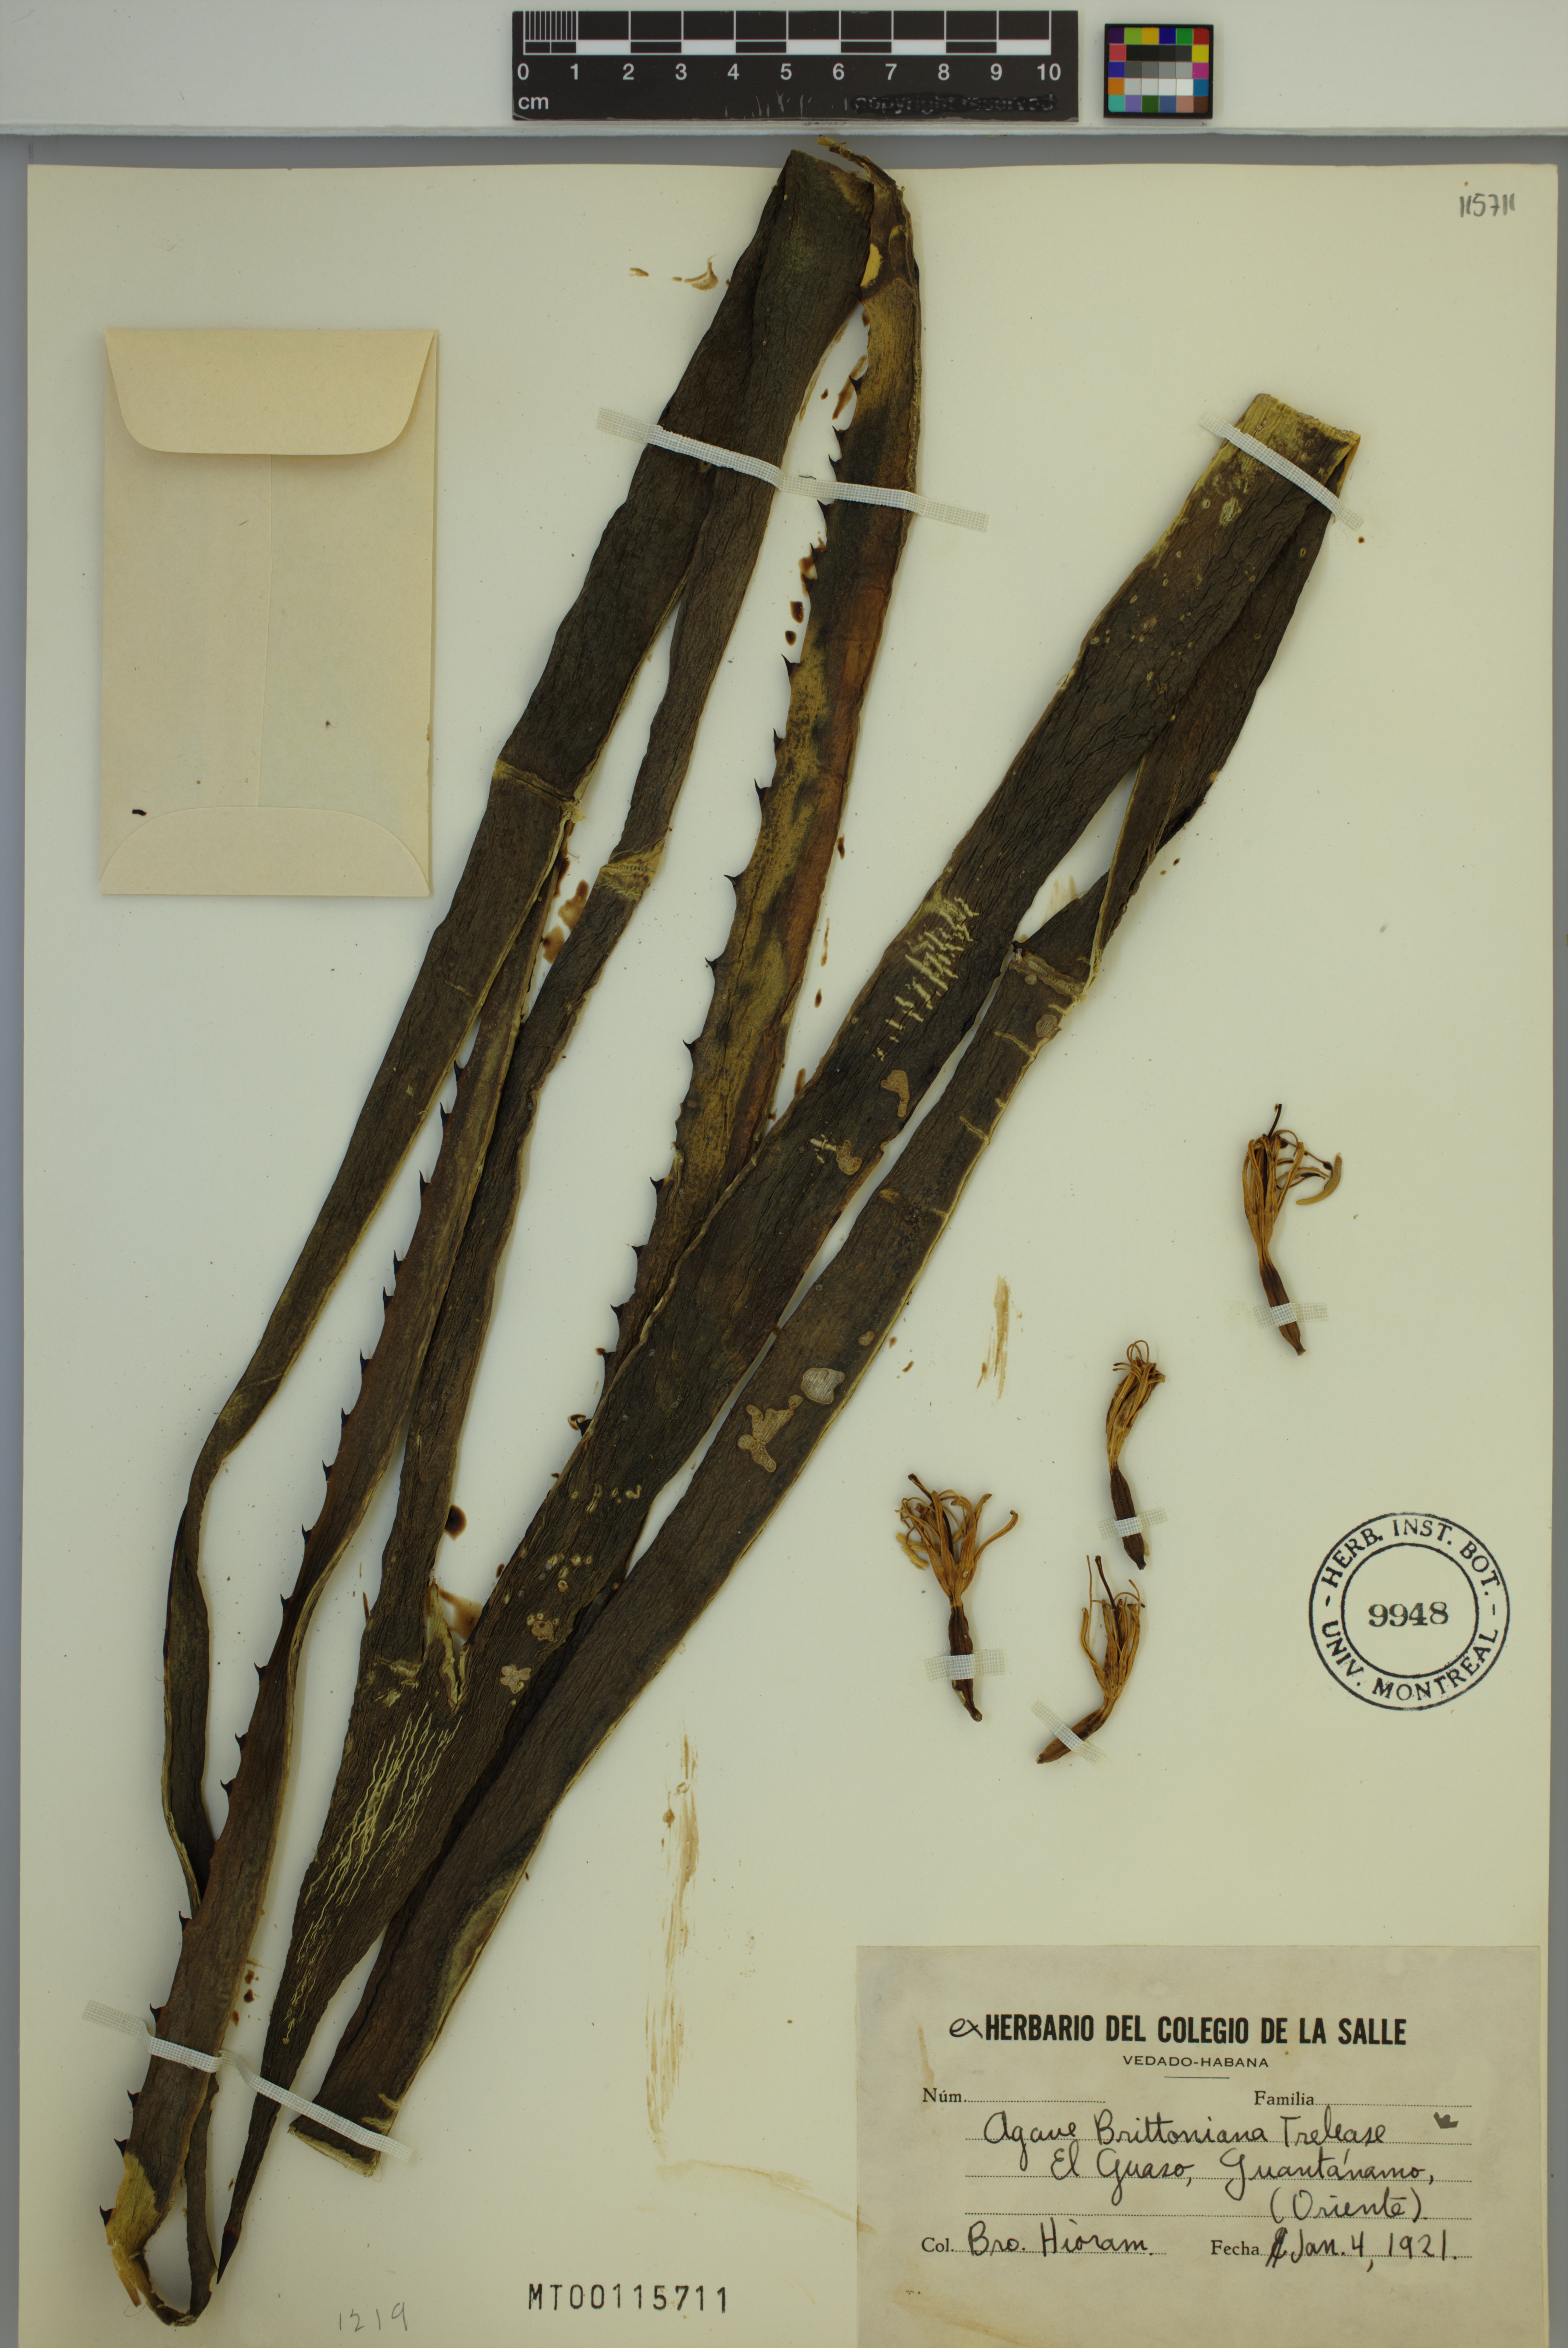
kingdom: Plantae
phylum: Tracheophyta
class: Liliopsida
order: Asparagales
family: Asparagaceae
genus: Agave
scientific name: Agave brittoniana
